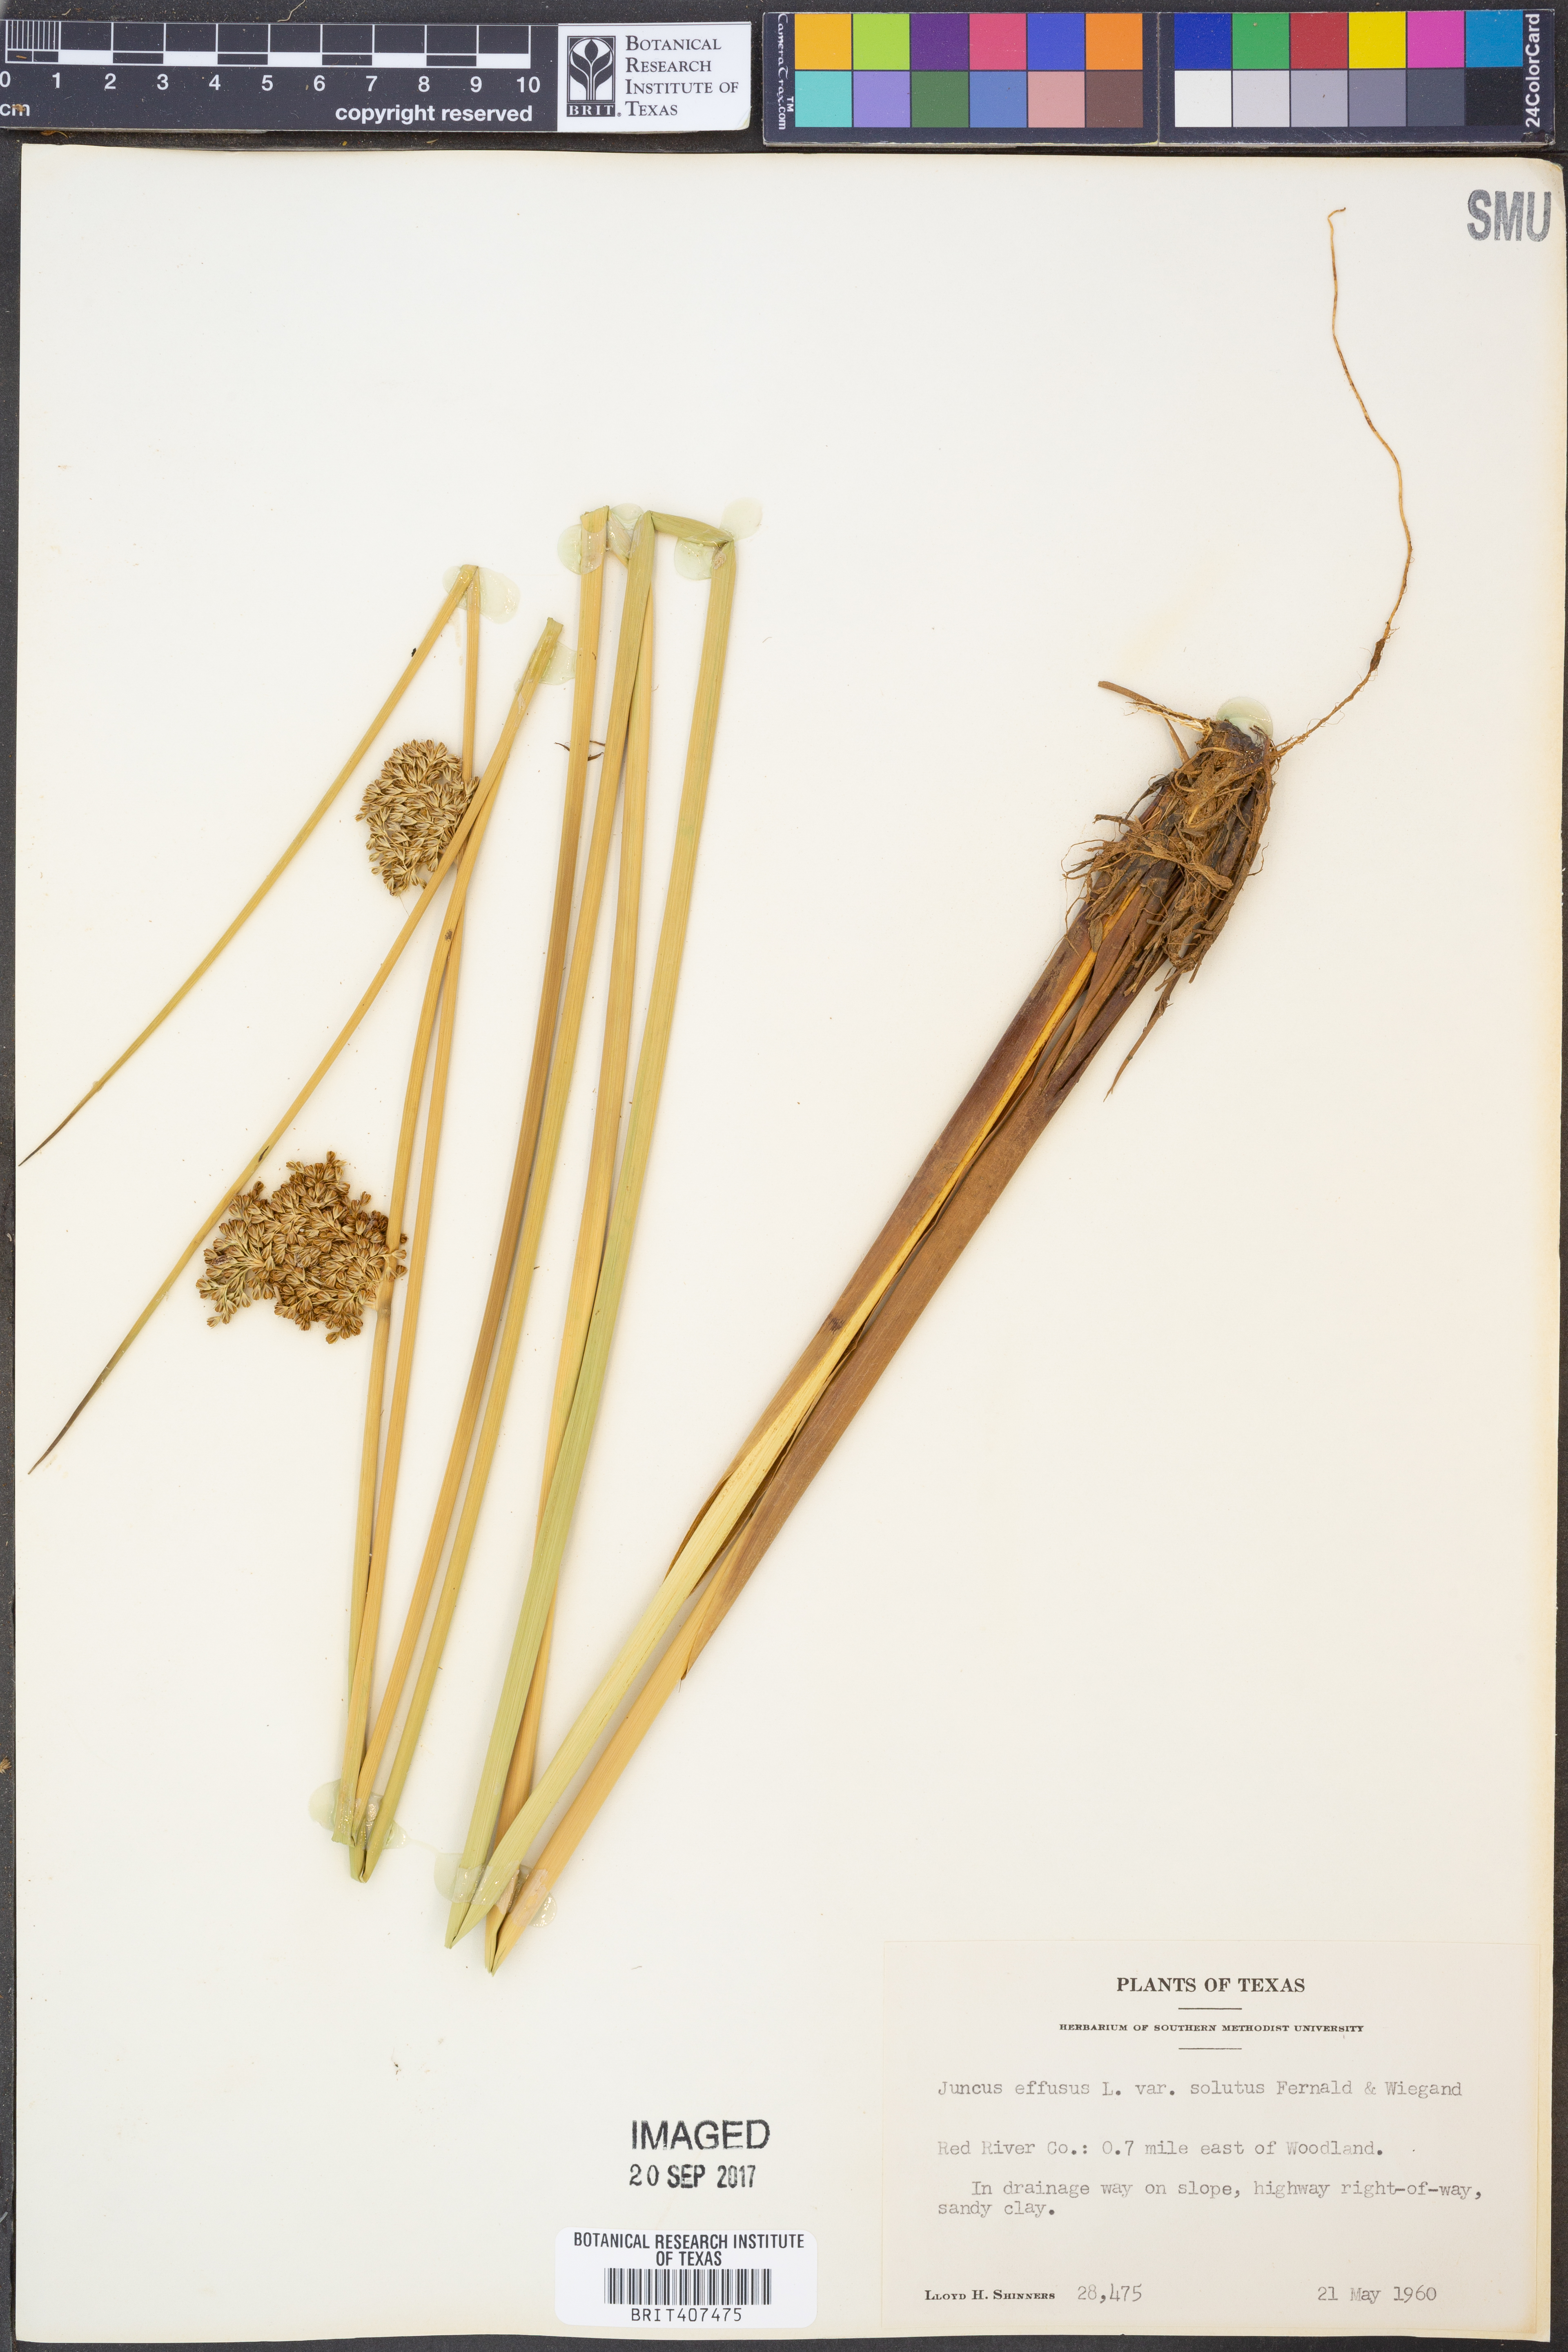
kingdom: Plantae
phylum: Tracheophyta
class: Liliopsida
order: Poales
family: Juncaceae
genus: Juncus
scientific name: Juncus effusus
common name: Soft rush
